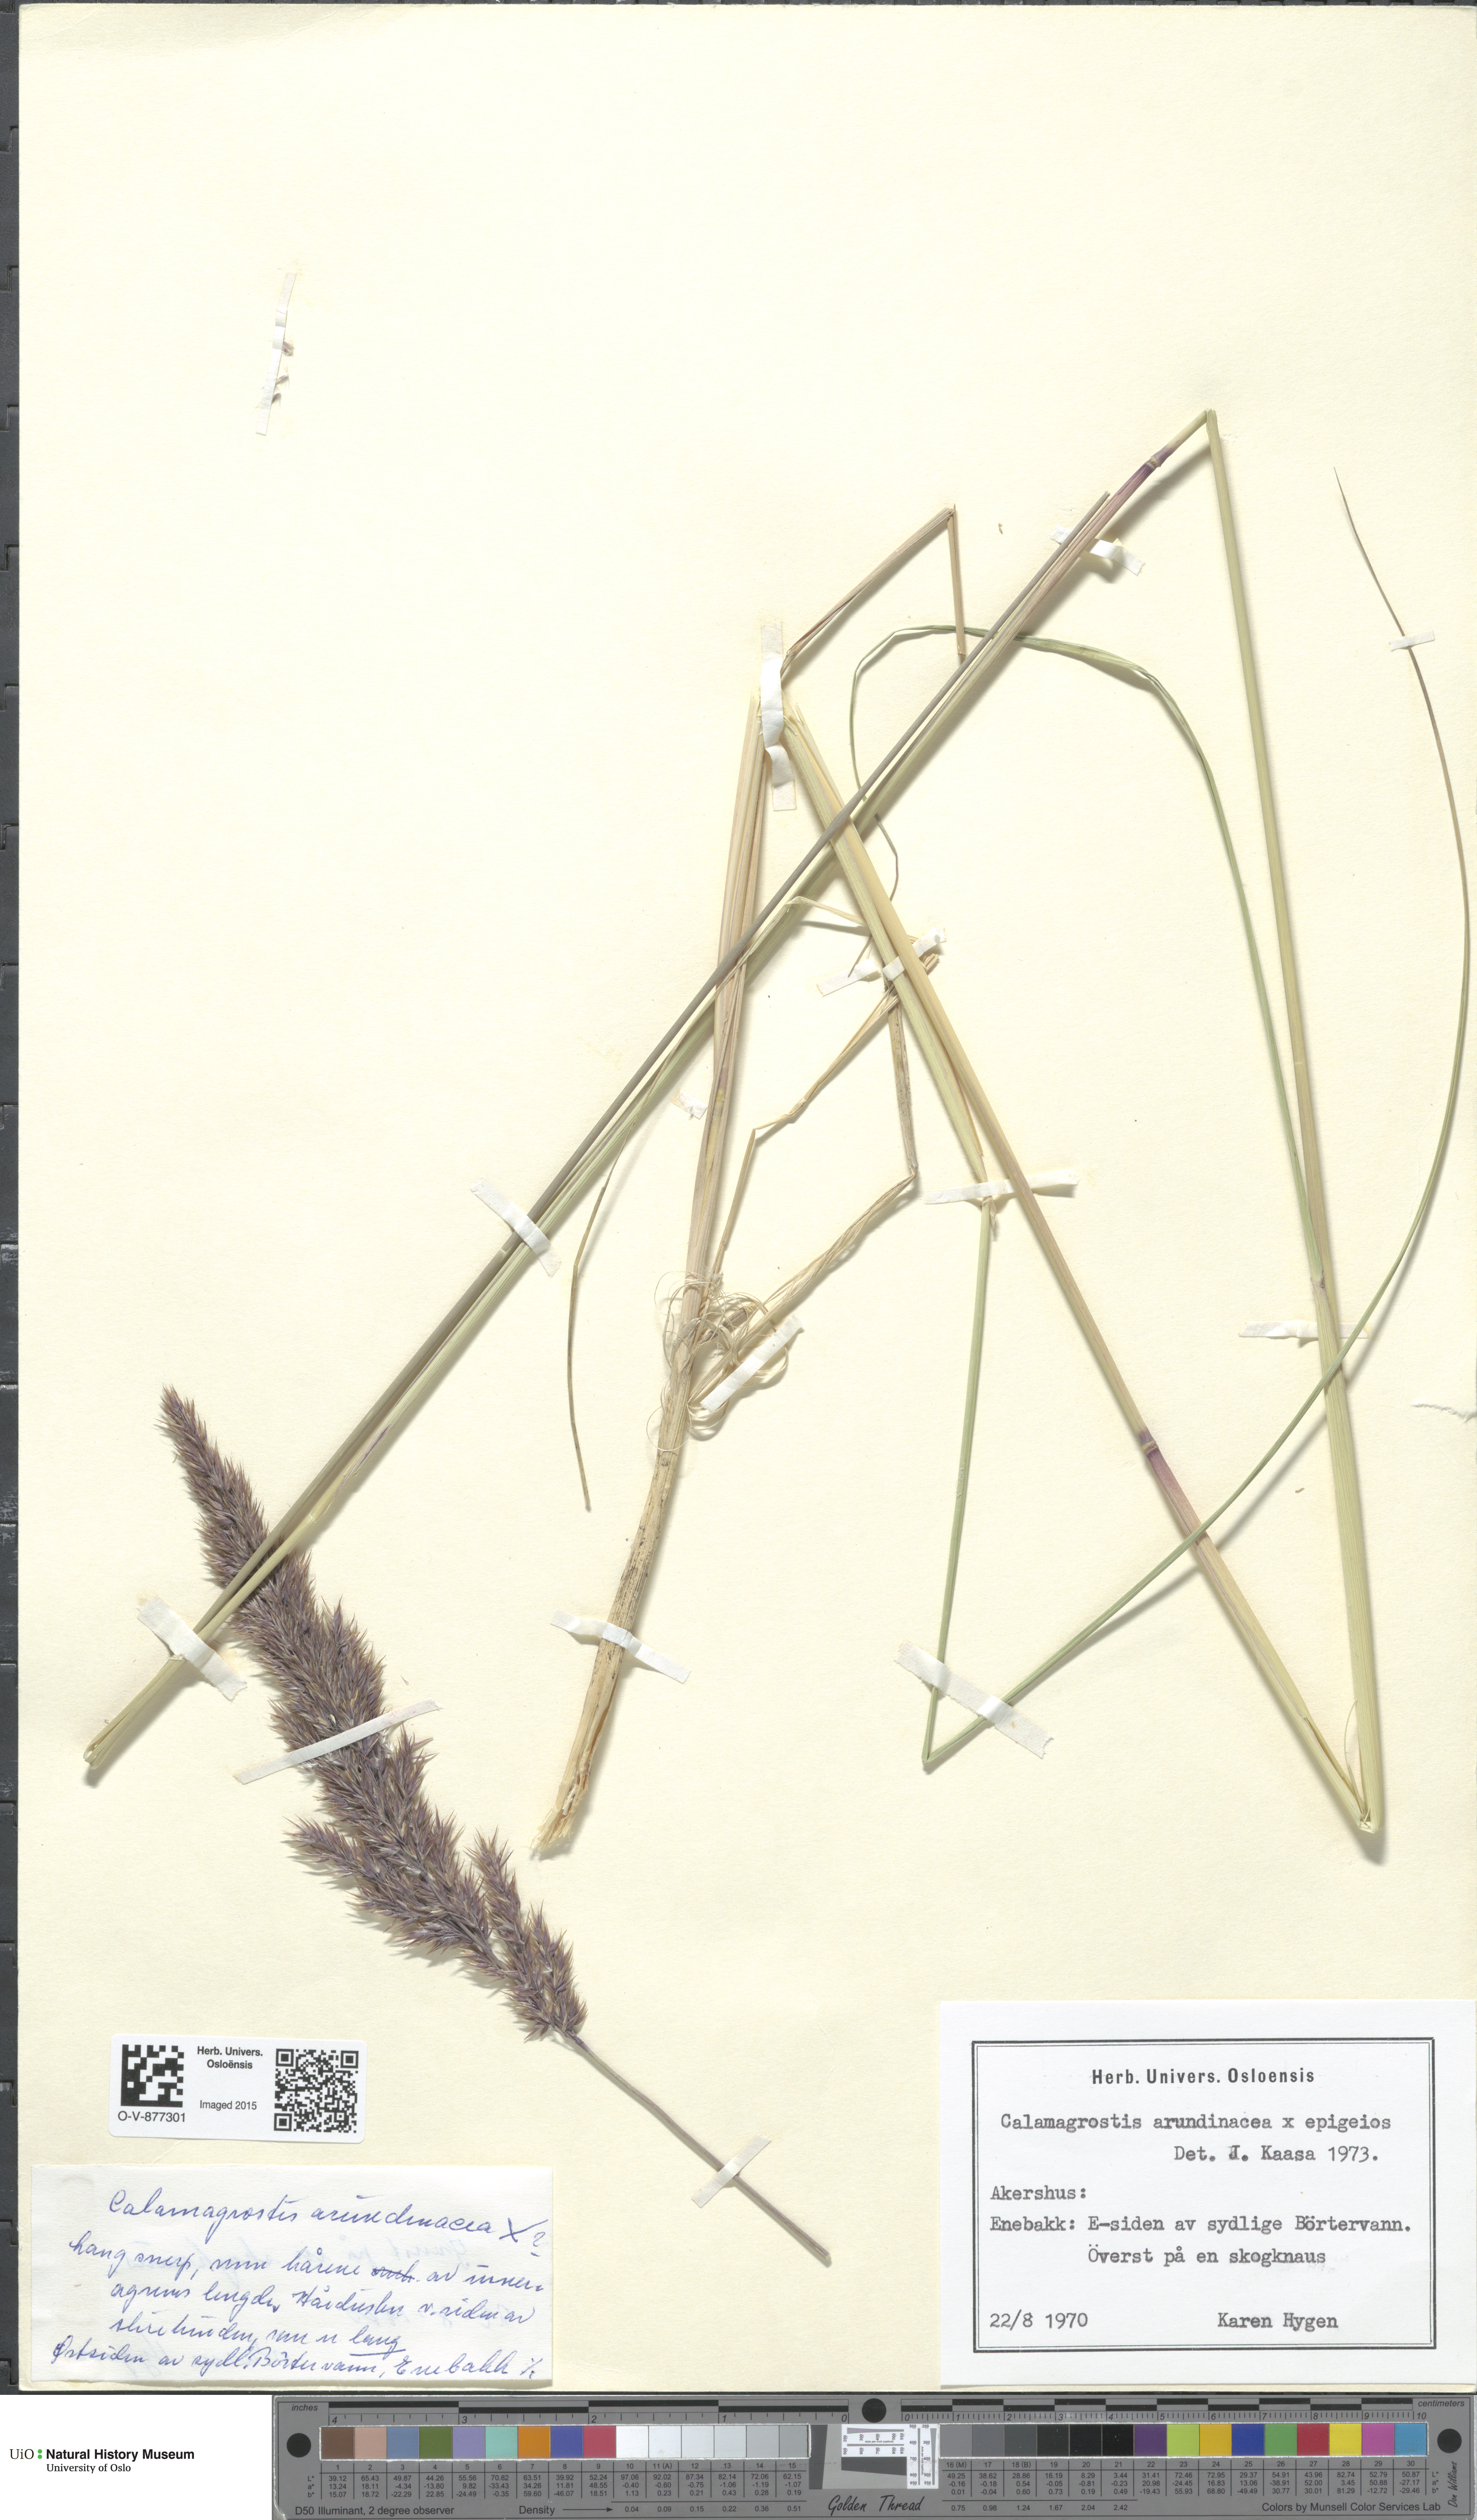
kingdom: Plantae
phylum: Tracheophyta
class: Liliopsida
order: Poales
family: Poaceae
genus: Calamagrostis
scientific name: Calamagrostis
